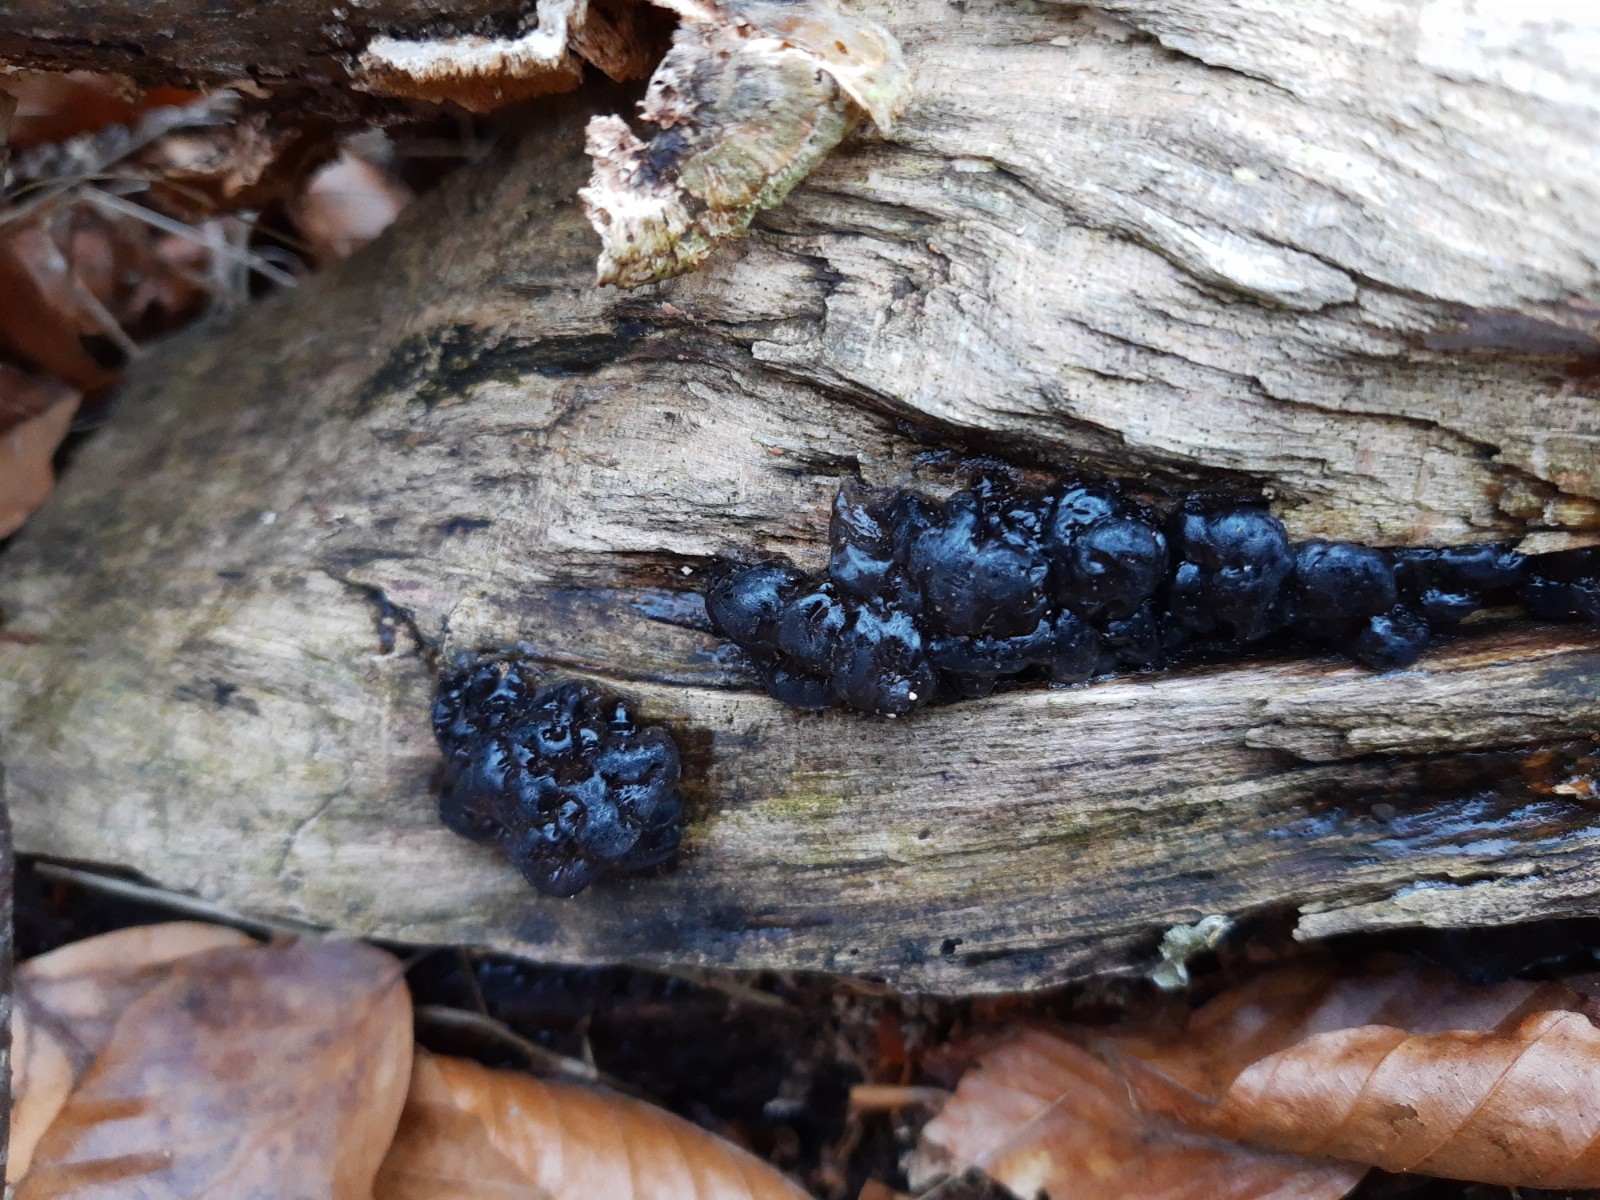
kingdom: Fungi
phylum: Basidiomycota
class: Agaricomycetes
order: Auriculariales
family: Auriculariaceae
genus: Exidia
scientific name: Exidia nigricans
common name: almindelig bævretop
